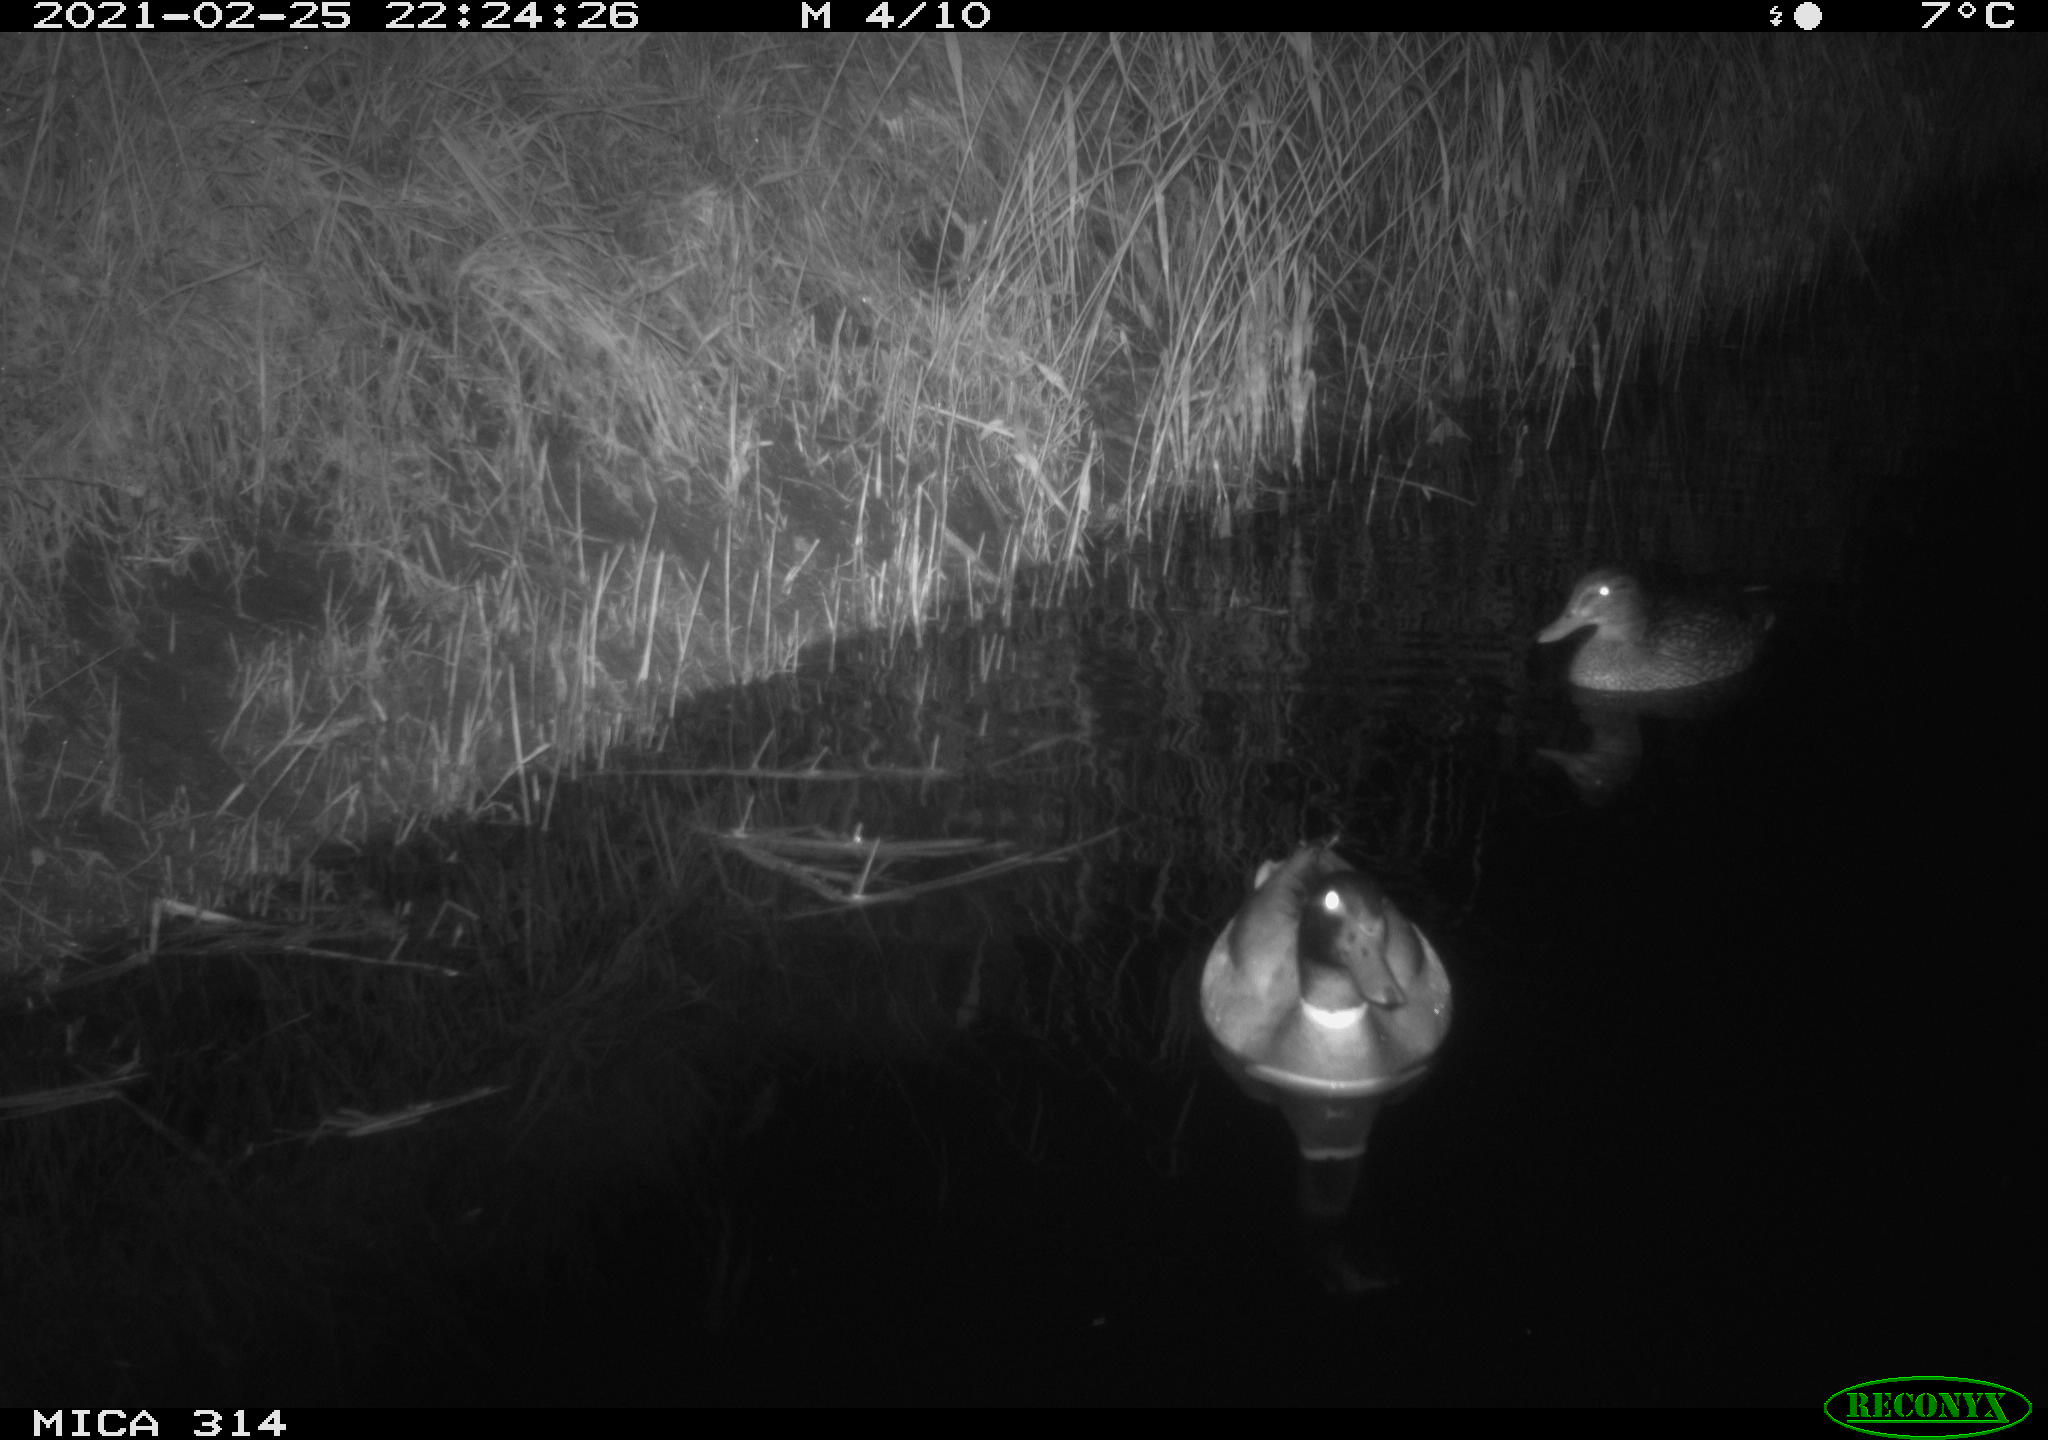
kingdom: Animalia
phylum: Chordata
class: Aves
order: Anseriformes
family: Anatidae
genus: Anas
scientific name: Anas platyrhynchos
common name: Mallard
